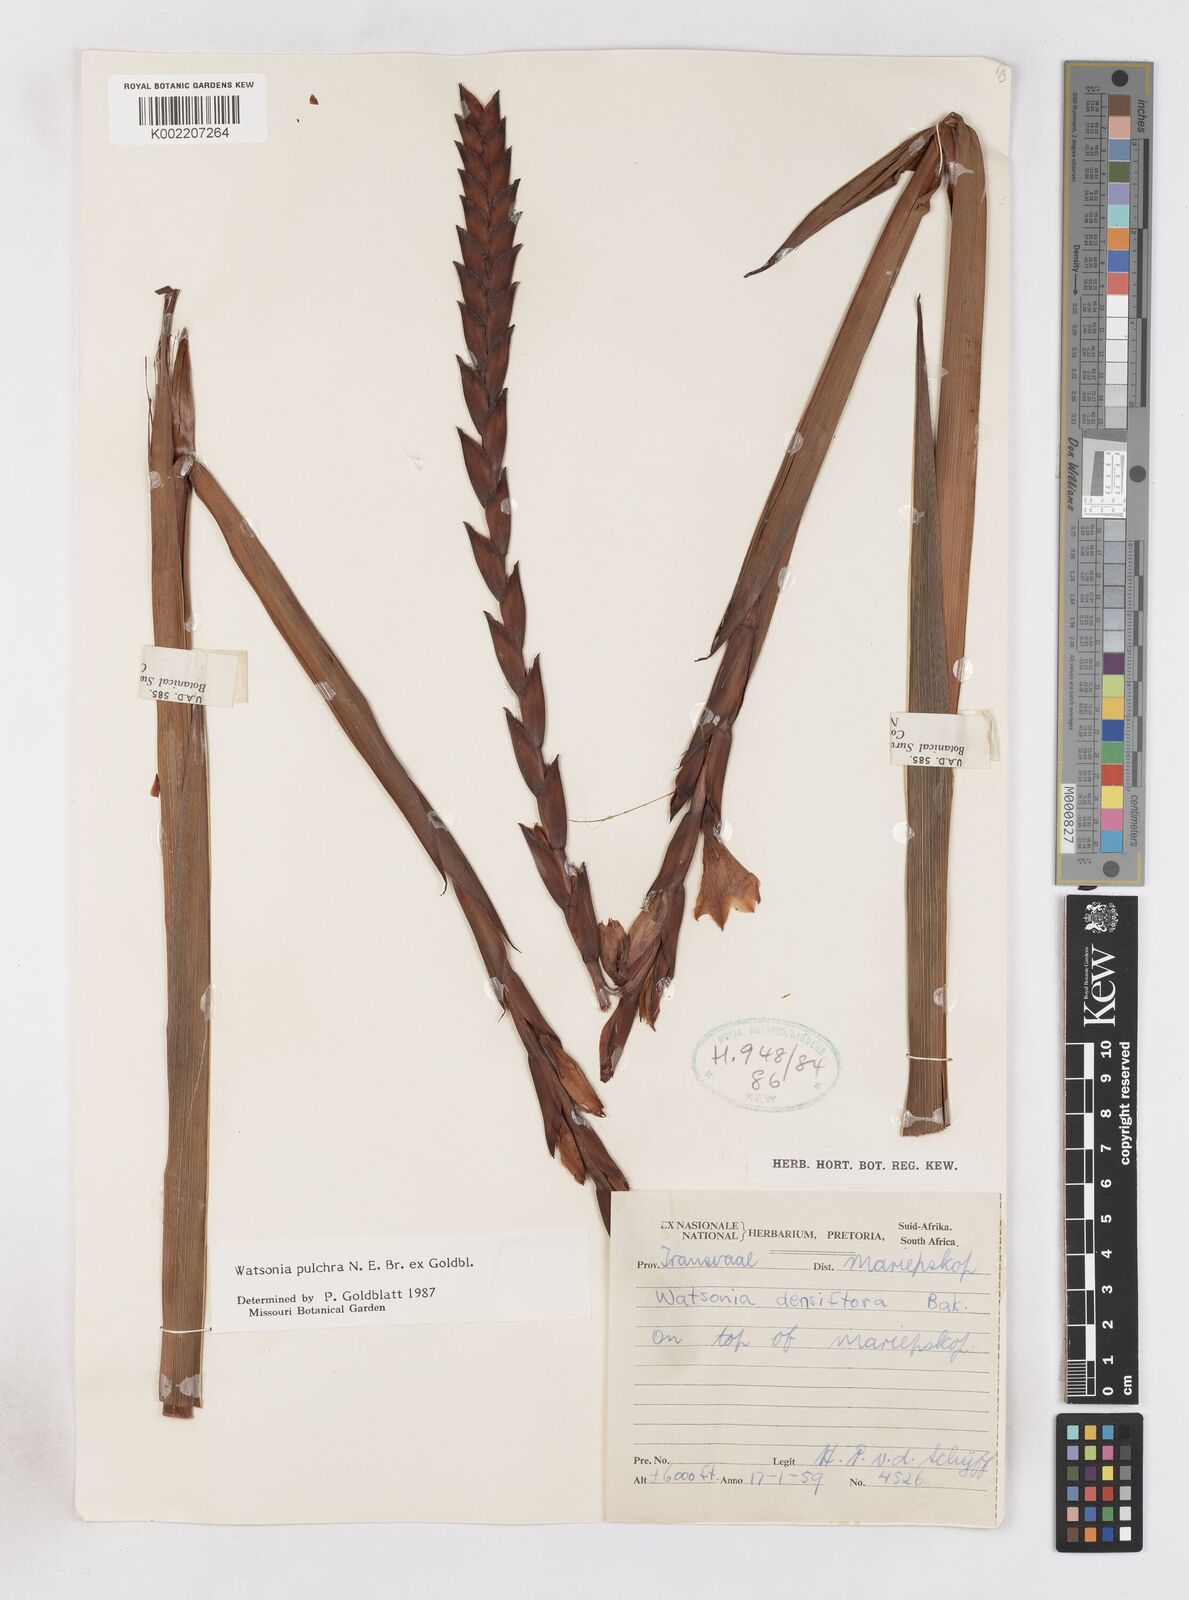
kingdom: Plantae
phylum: Tracheophyta
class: Liliopsida
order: Asparagales
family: Iridaceae
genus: Watsonia
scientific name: Watsonia pulchra
